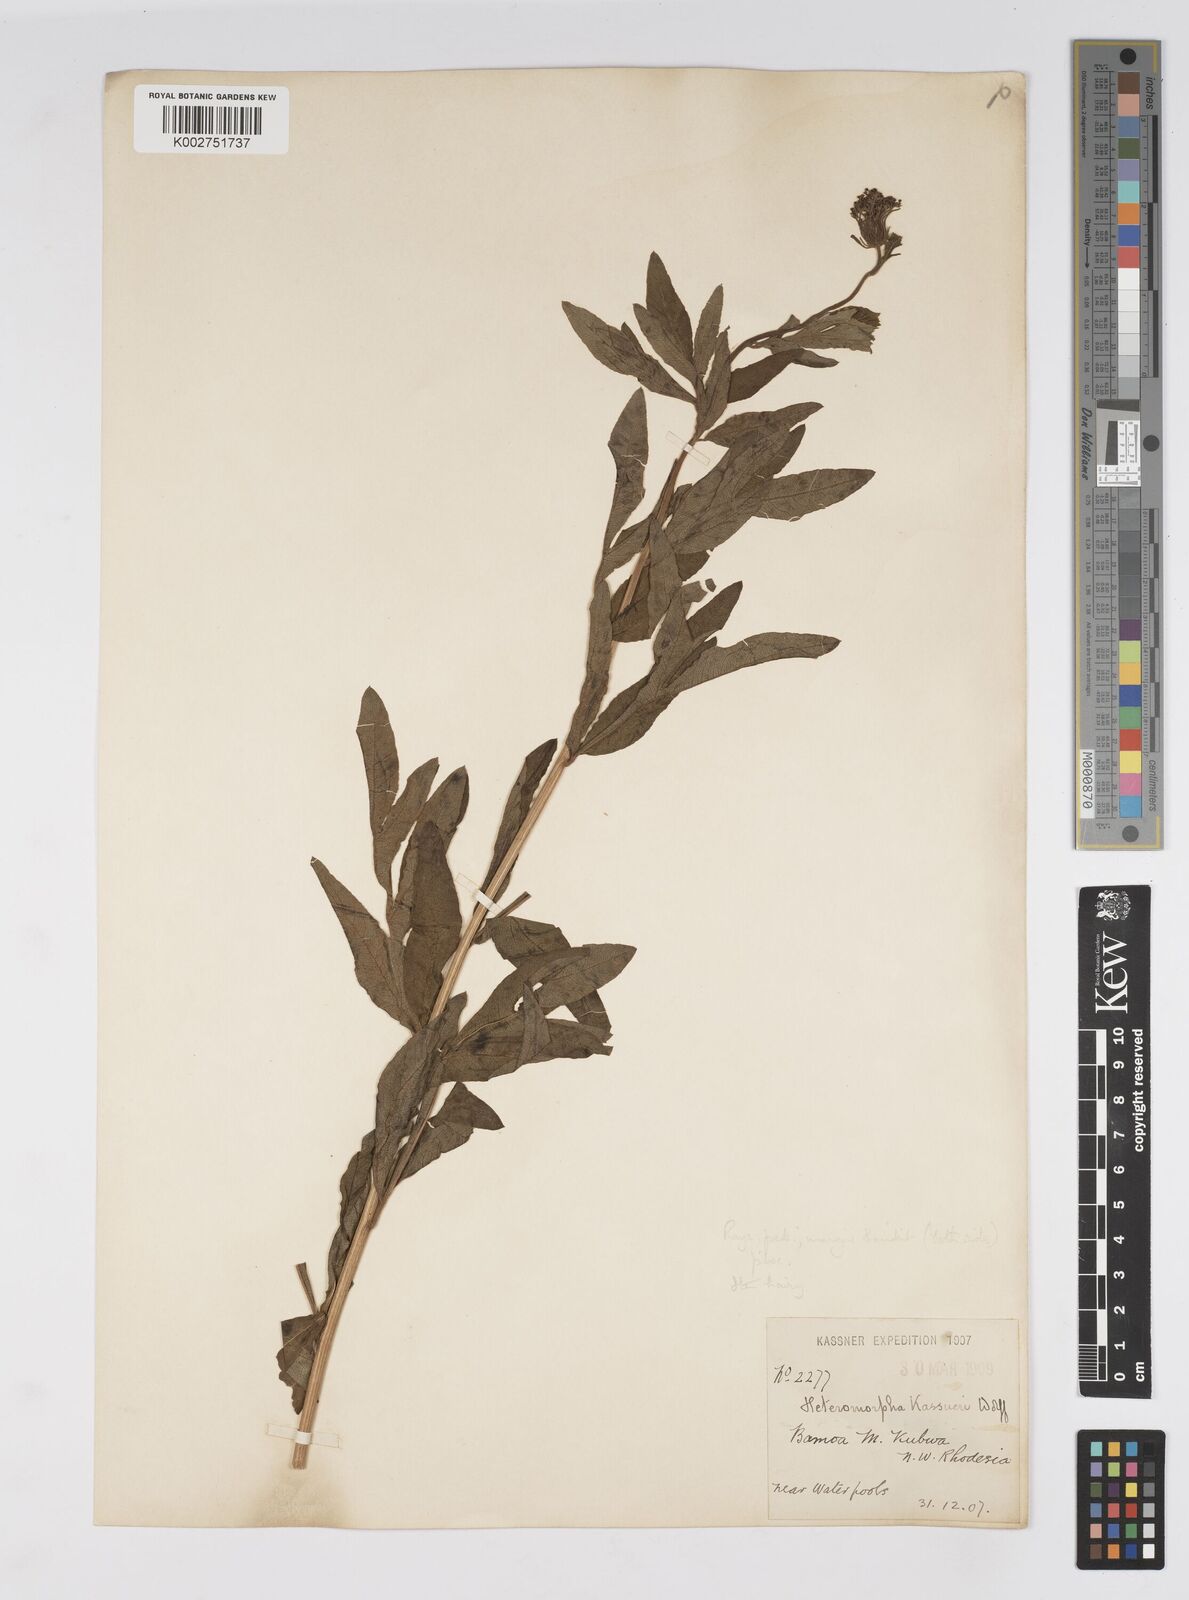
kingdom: Plantae
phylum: Tracheophyta
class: Magnoliopsida
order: Apiales
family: Apiaceae
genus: Heteromorpha
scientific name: Heteromorpha involucrata
